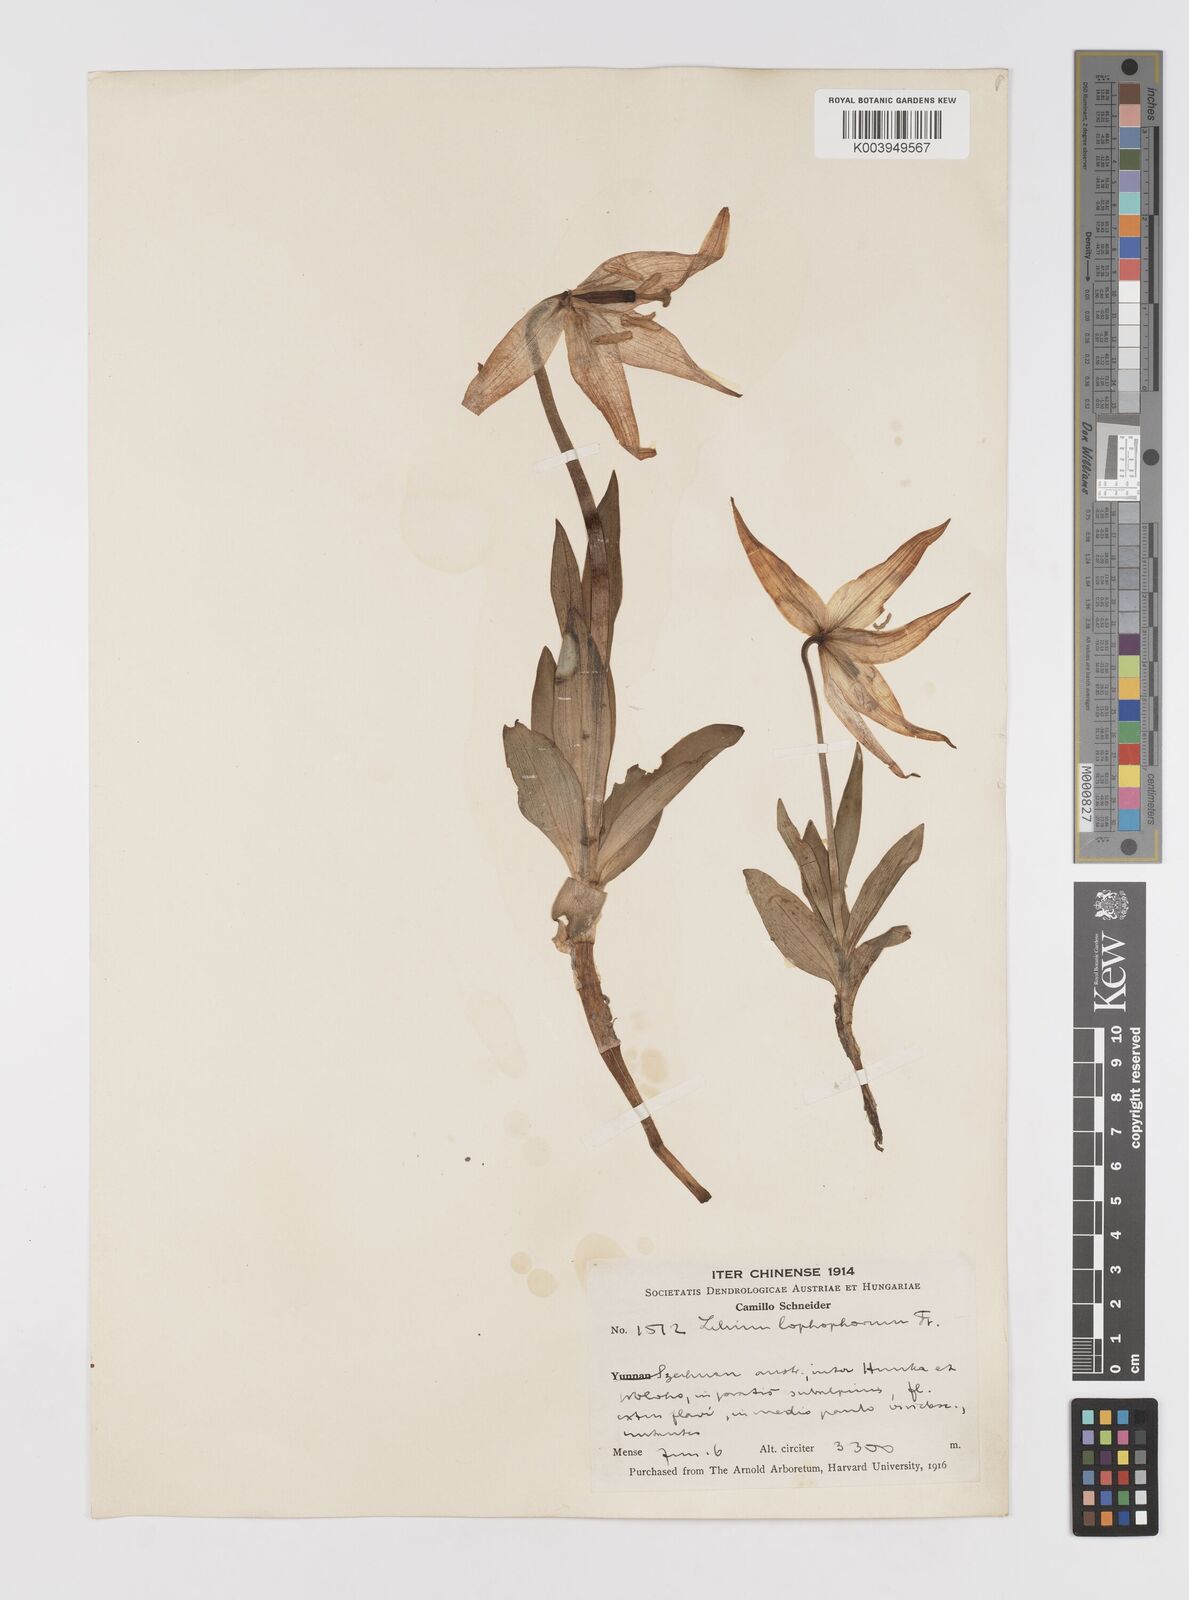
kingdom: Plantae
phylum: Tracheophyta
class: Liliopsida
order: Liliales
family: Liliaceae
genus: Lilium
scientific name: Lilium lophophorum
